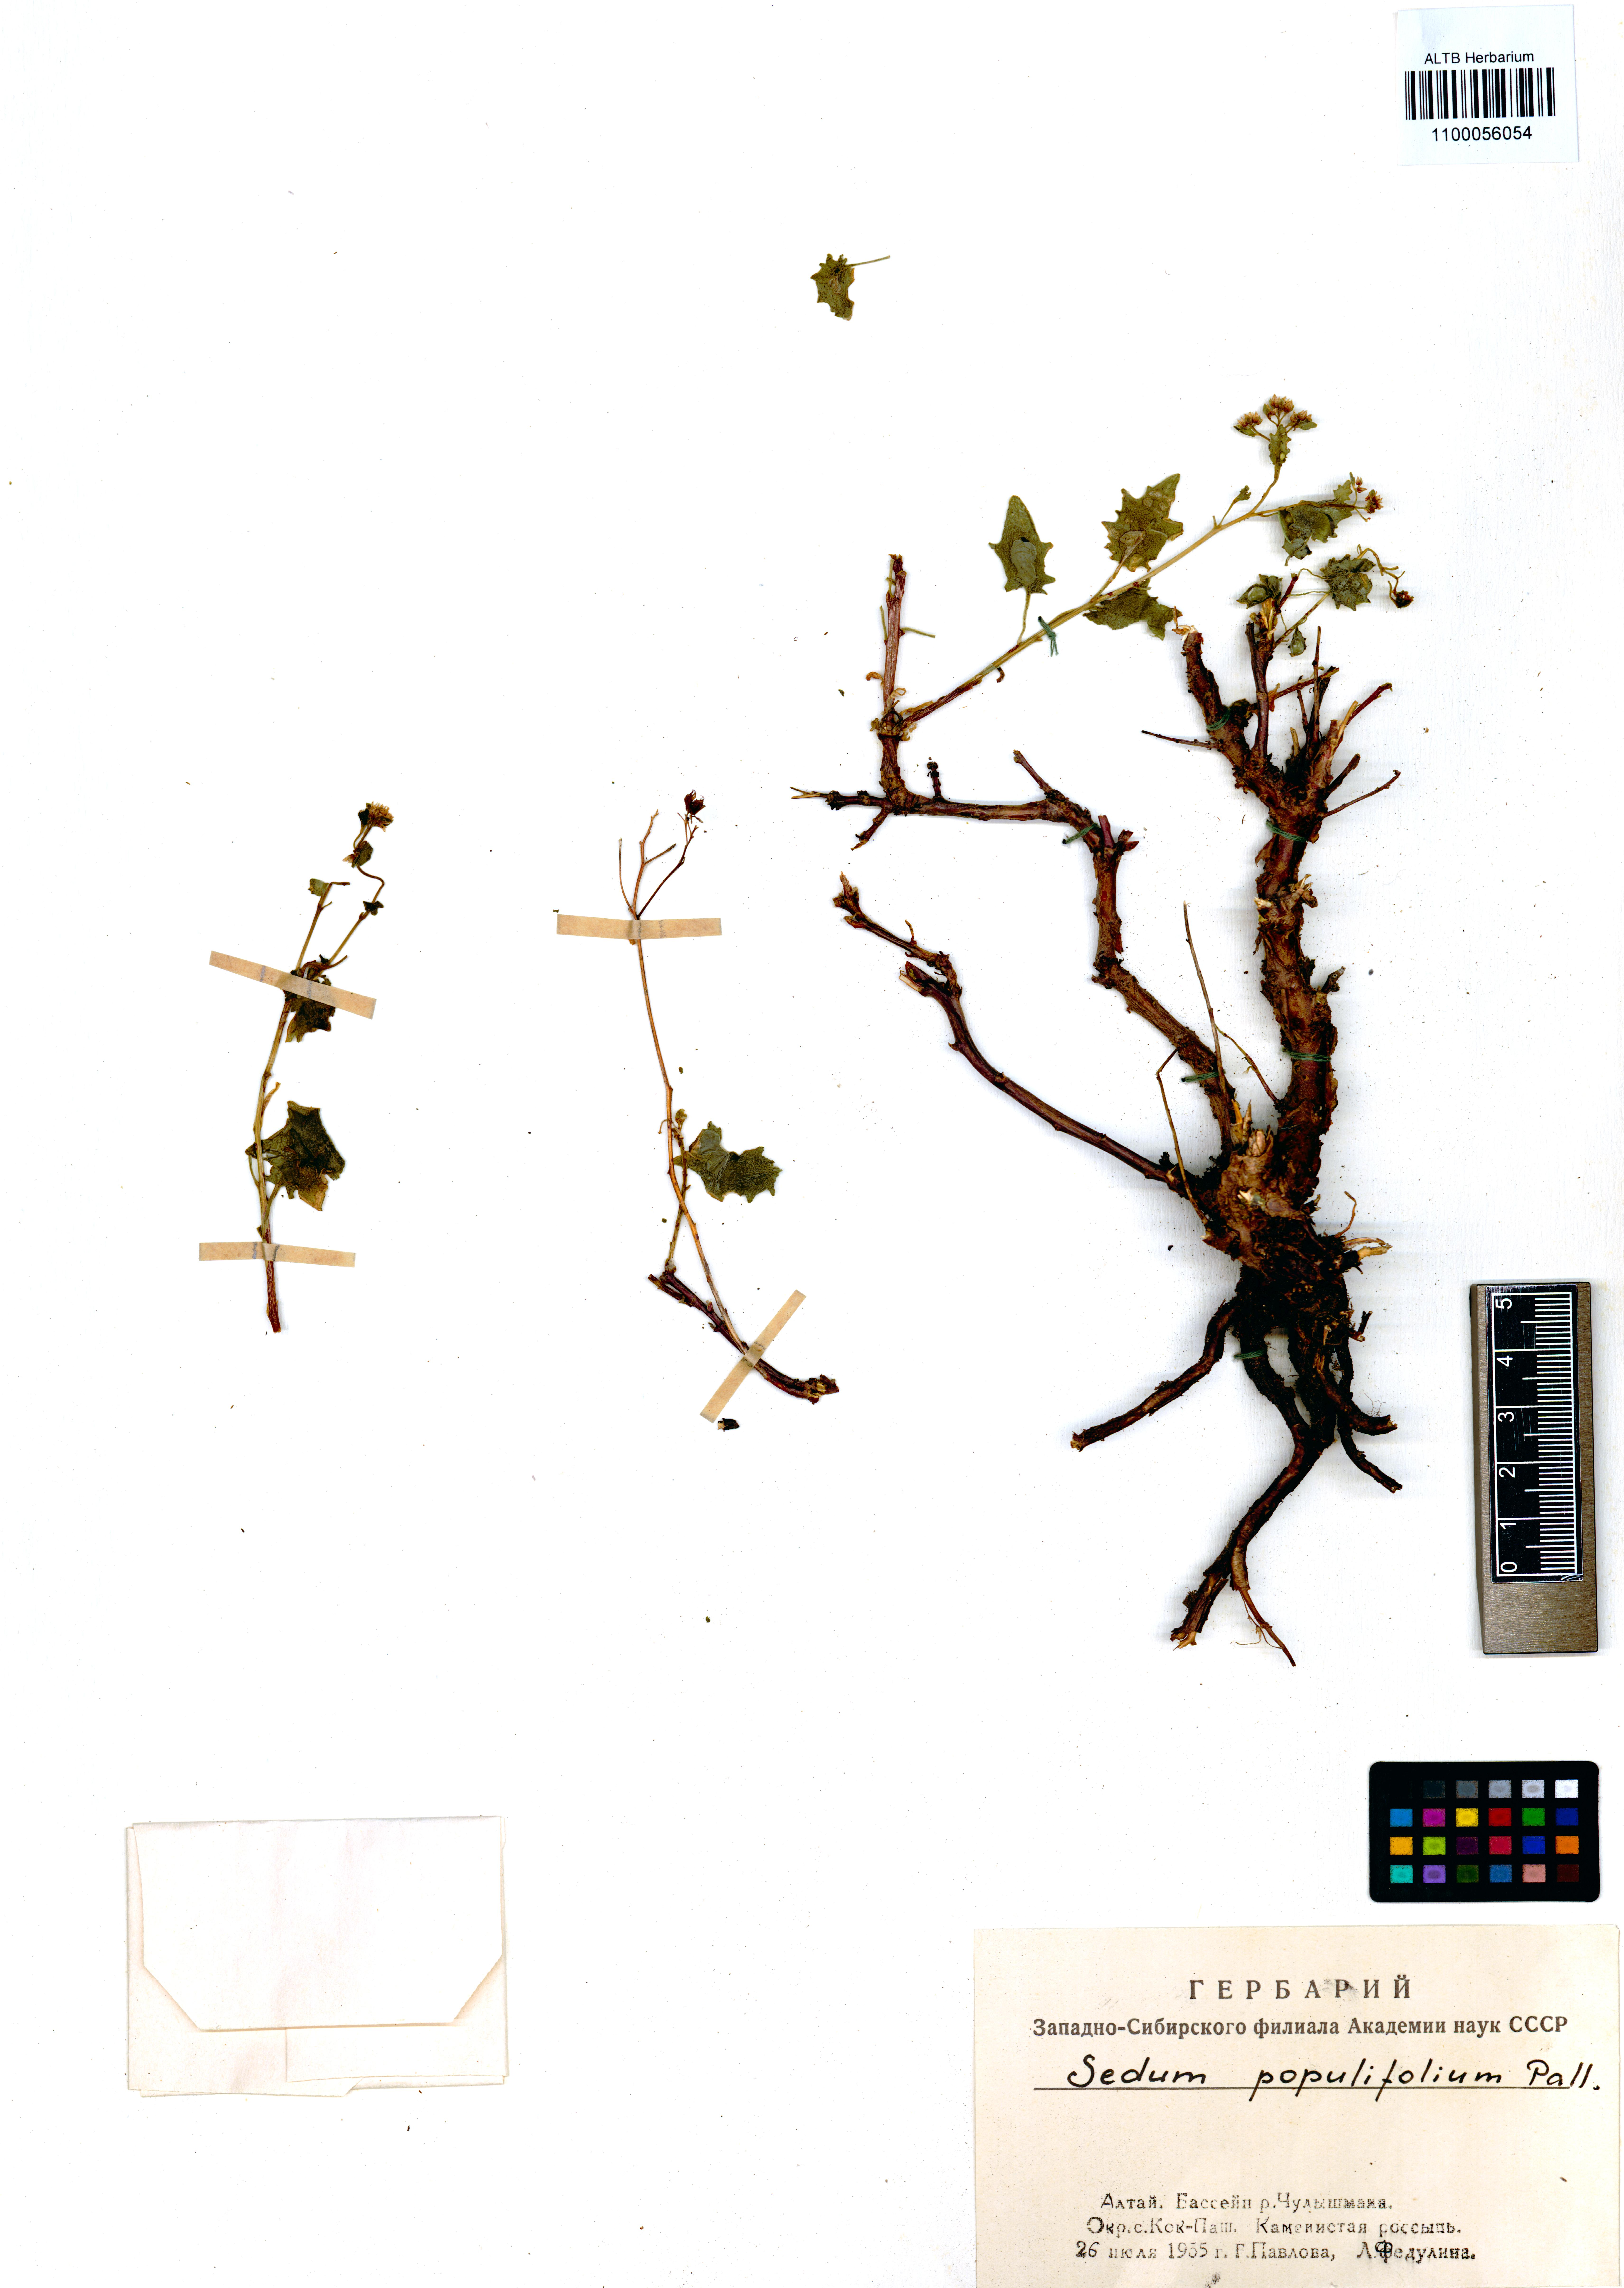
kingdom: Plantae
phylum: Tracheophyta
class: Magnoliopsida
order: Saxifragales
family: Crassulaceae
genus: Hylotelephium
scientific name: Hylotelephium populifolium
